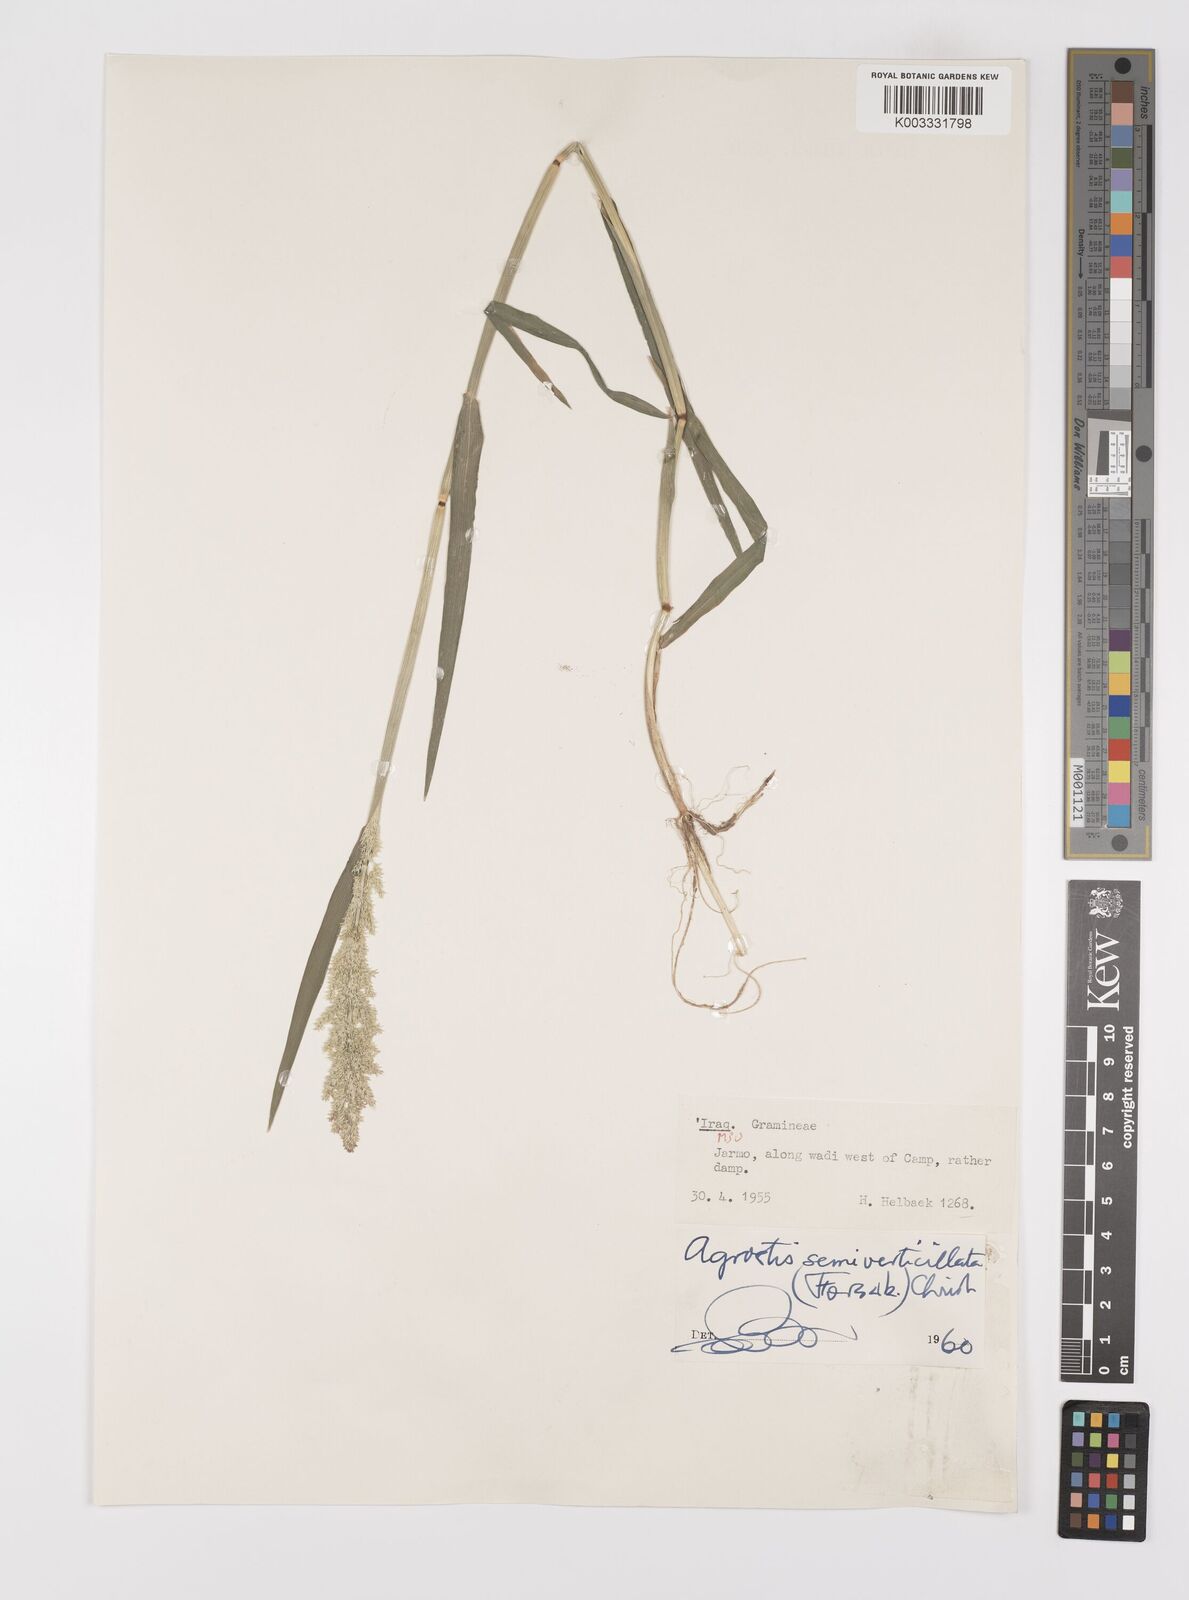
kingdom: Plantae
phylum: Tracheophyta
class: Liliopsida
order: Poales
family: Poaceae
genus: Polypogon
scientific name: Polypogon viridis
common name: Water bent
